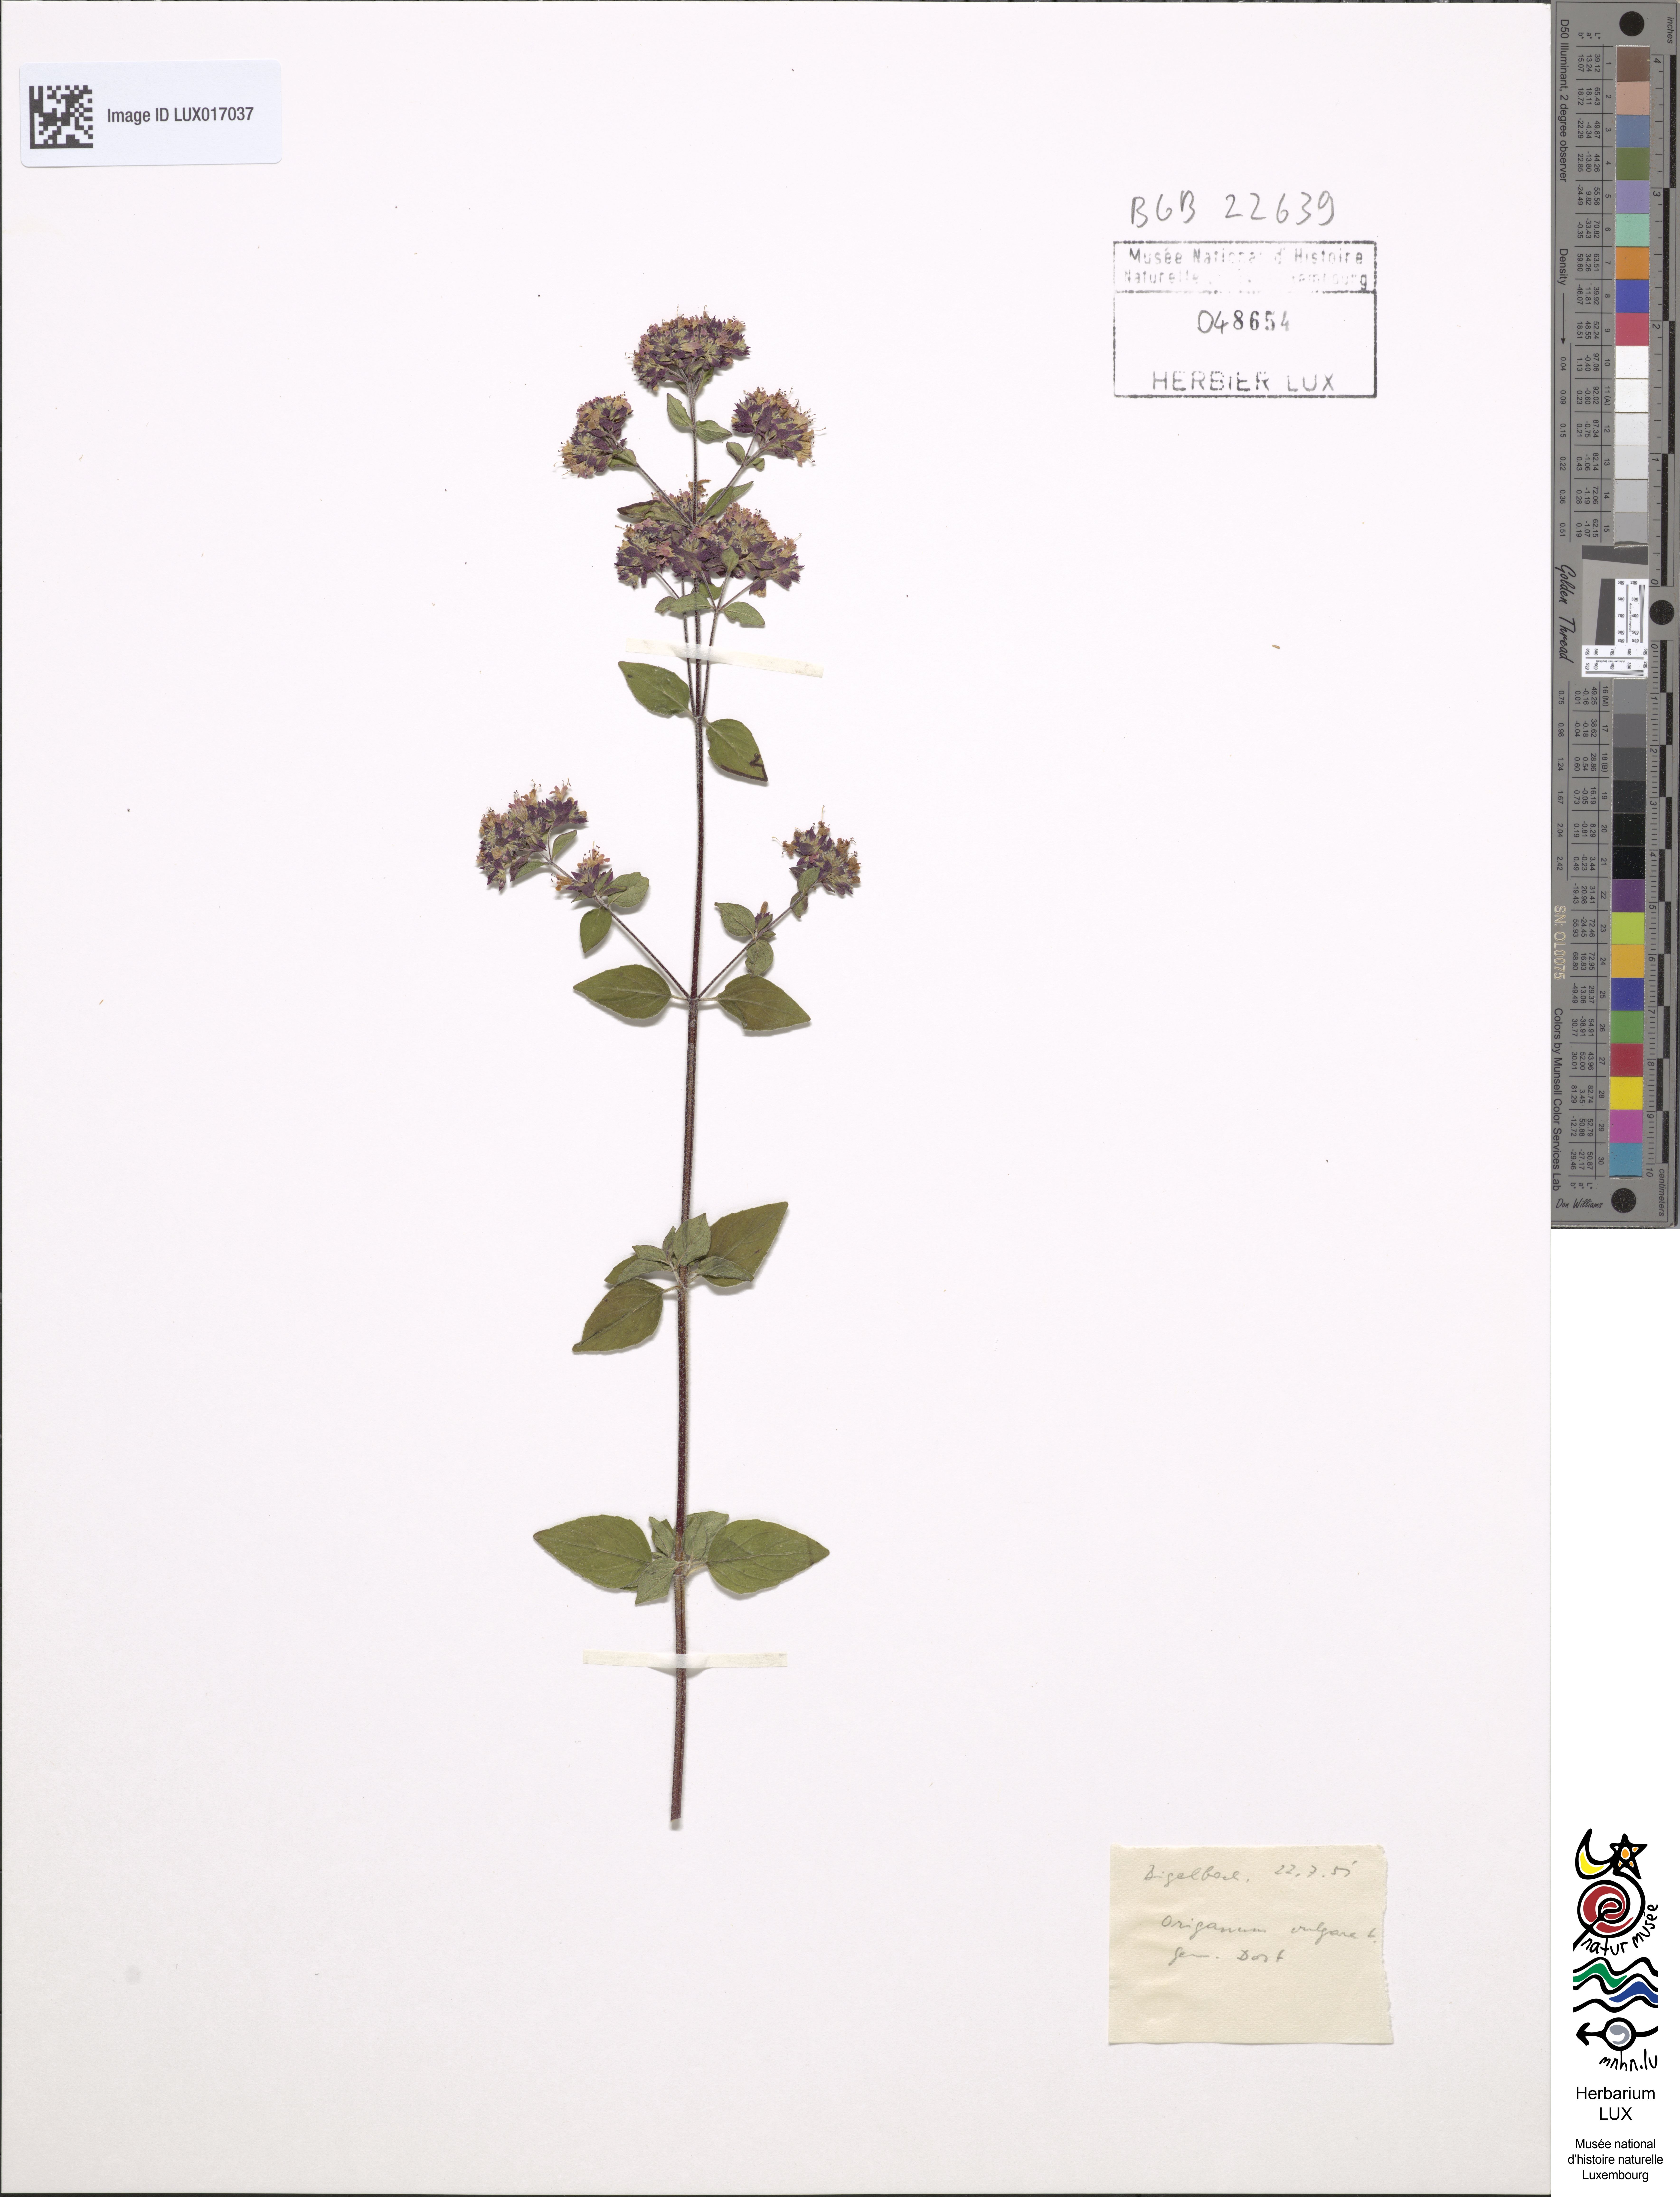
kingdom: Plantae
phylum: Tracheophyta
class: Magnoliopsida
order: Lamiales
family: Lamiaceae
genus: Origanum
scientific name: Origanum vulgare
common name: Wild marjoram
